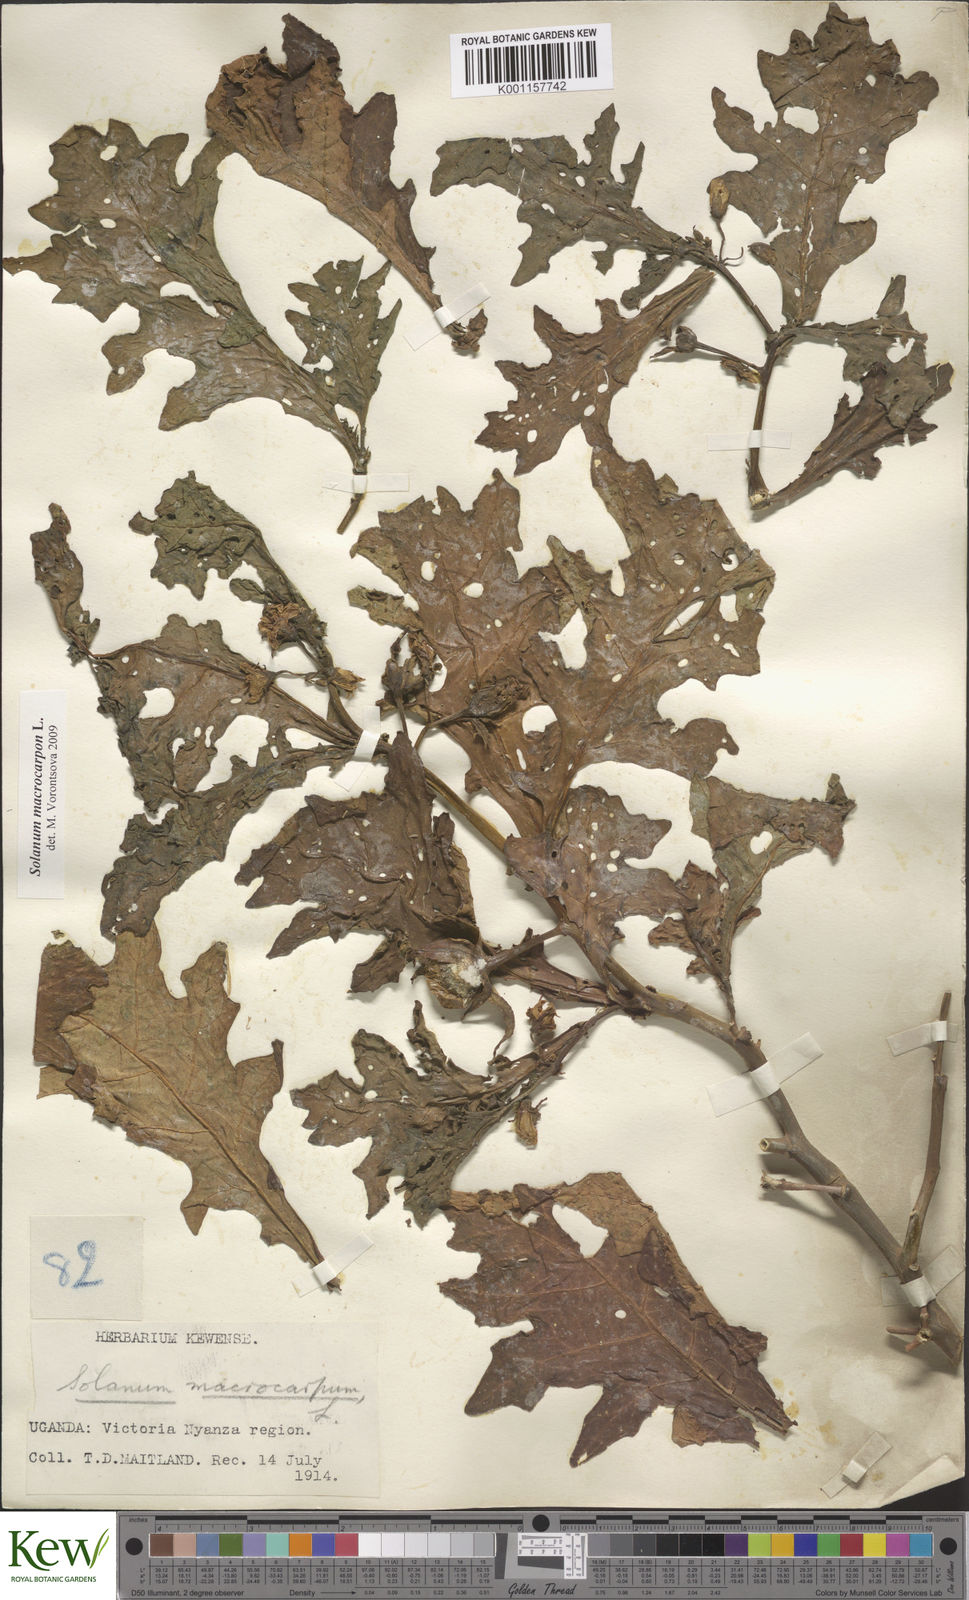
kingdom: Plantae
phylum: Tracheophyta
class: Magnoliopsida
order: Solanales
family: Solanaceae
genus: Solanum
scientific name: Solanum macrocarpon
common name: African eggplant
